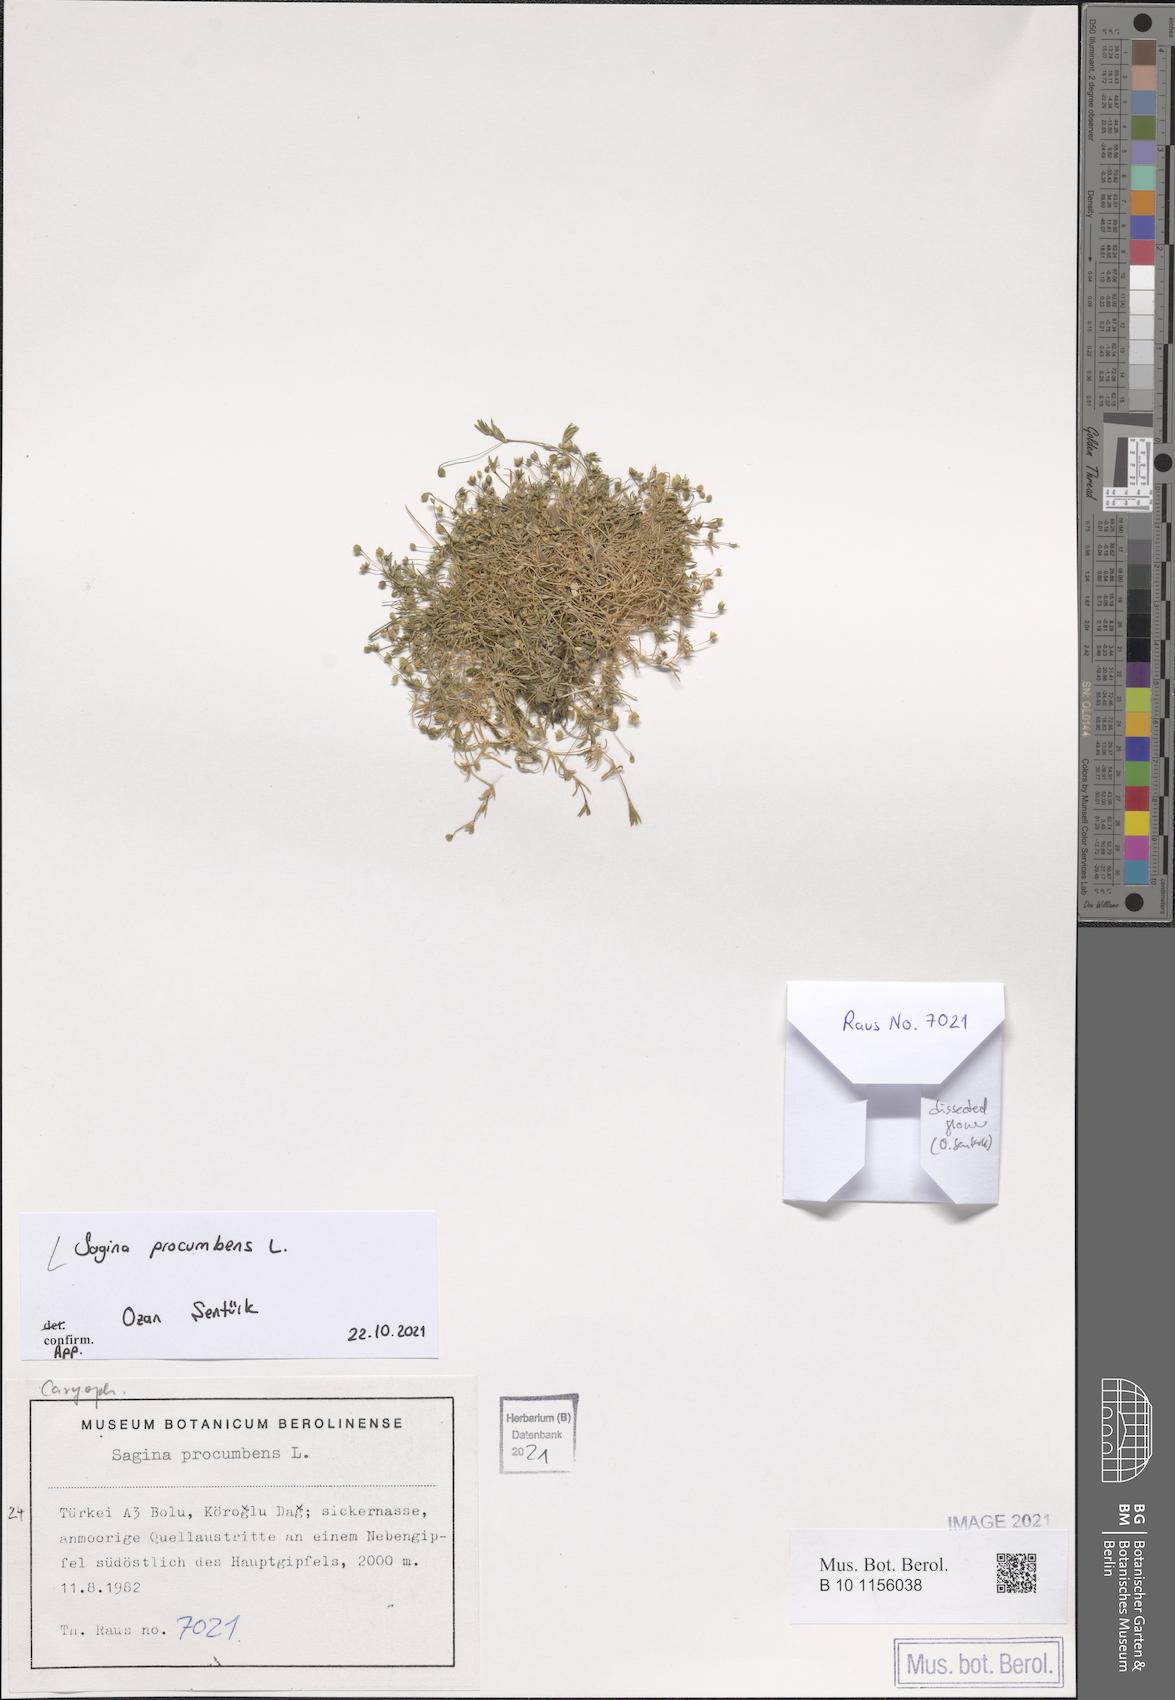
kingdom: Plantae
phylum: Tracheophyta
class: Magnoliopsida
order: Caryophyllales
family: Caryophyllaceae
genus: Sagina
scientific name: Sagina procumbens
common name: Procumbent pearlwort
